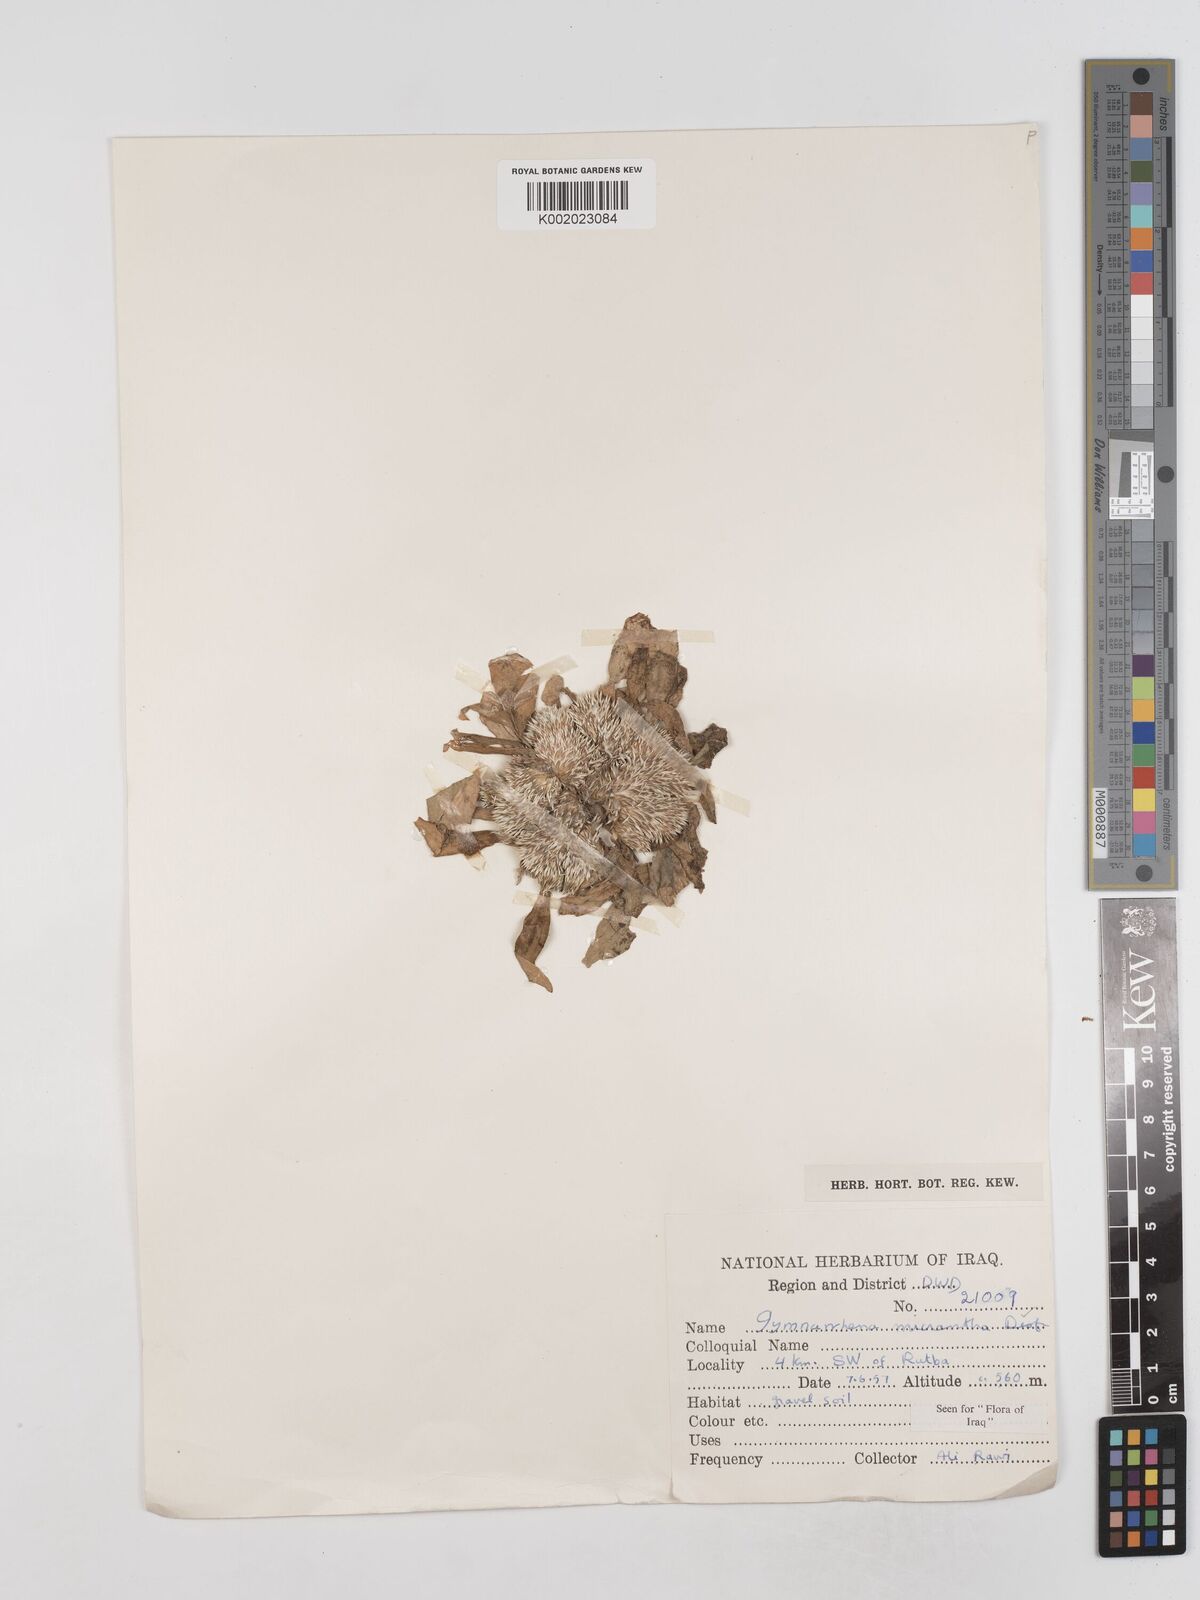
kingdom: Plantae
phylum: Tracheophyta
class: Magnoliopsida
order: Asterales
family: Asteraceae
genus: Gymnarrhena
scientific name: Gymnarrhena micrantha
